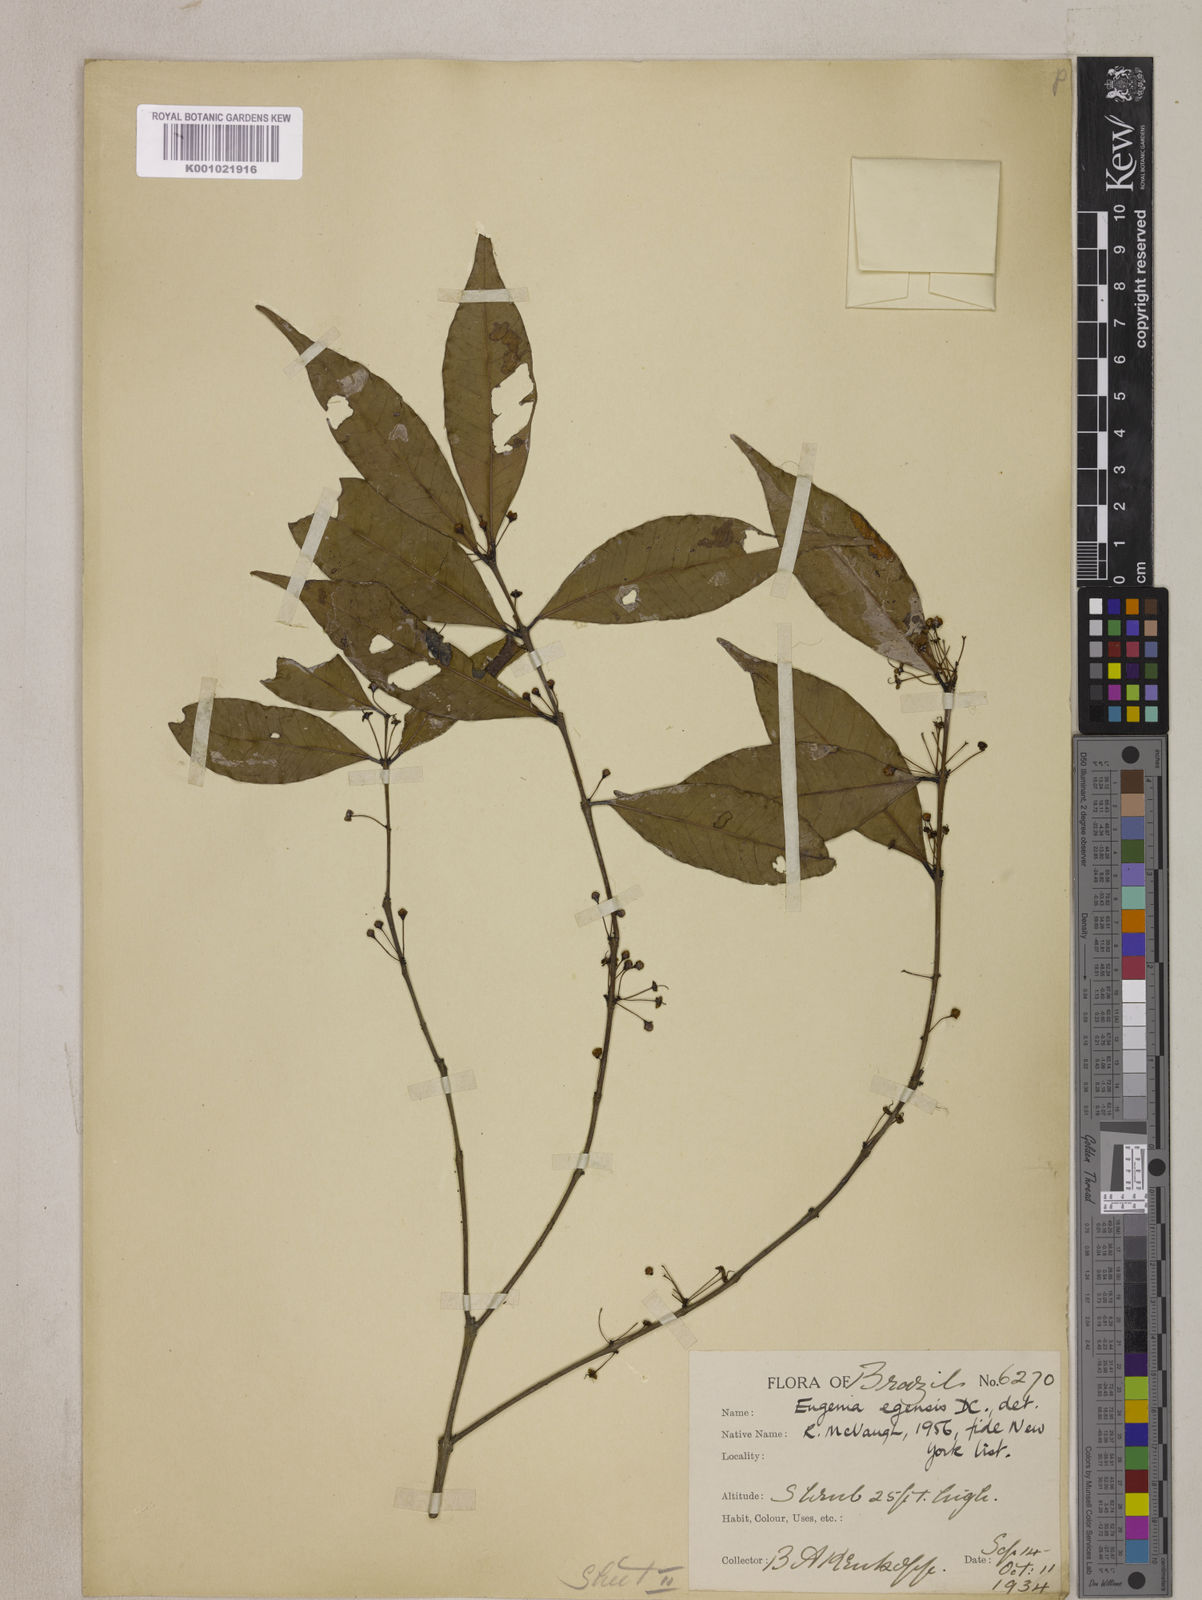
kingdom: Plantae
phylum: Tracheophyta
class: Magnoliopsida
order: Myrtales
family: Myrtaceae
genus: Eugenia
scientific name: Eugenia egensis
